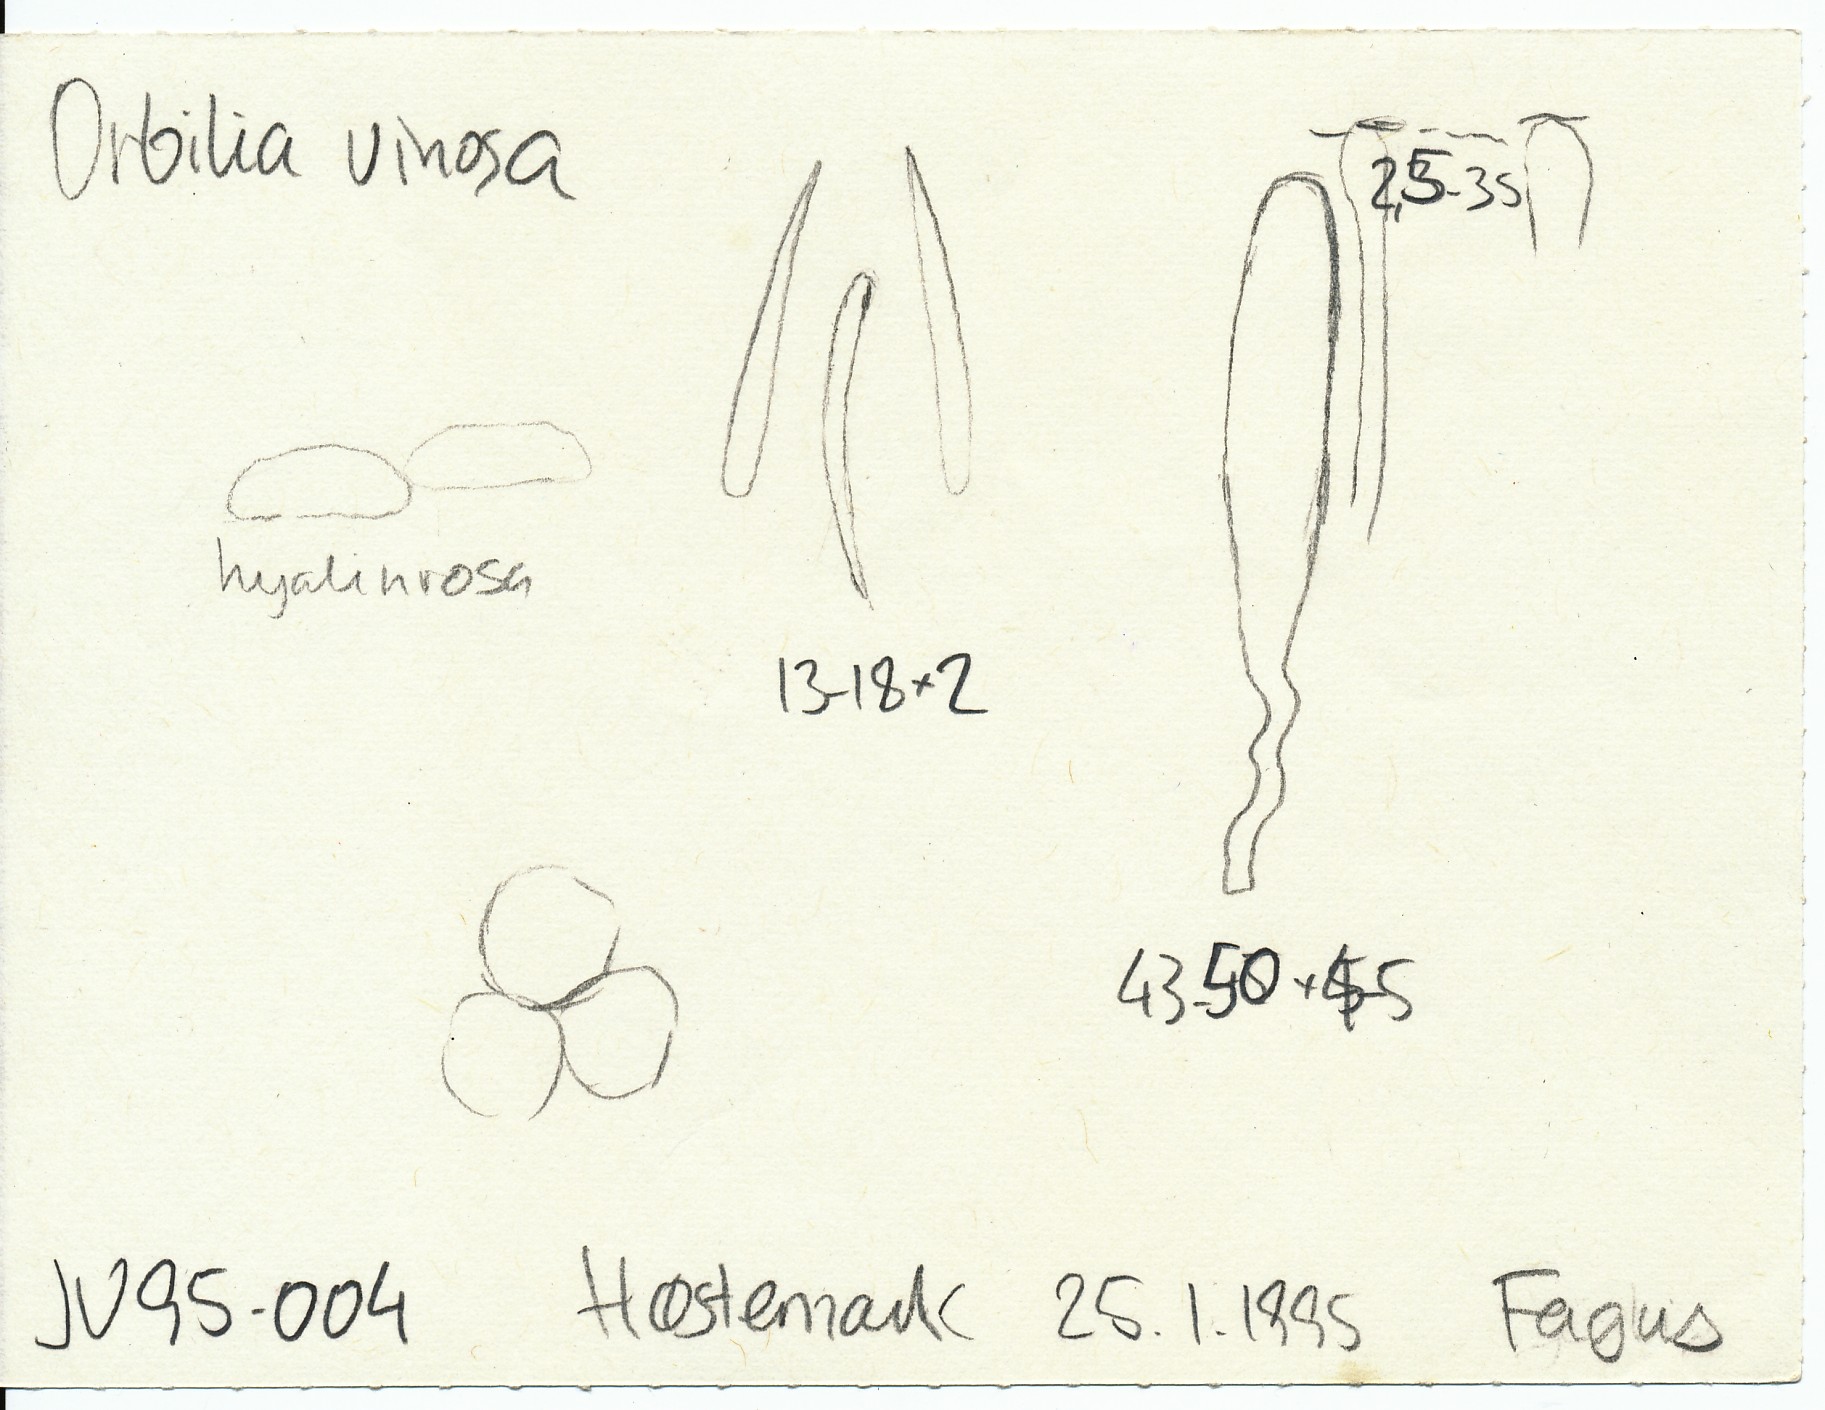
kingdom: Fungi
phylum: Ascomycota
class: Orbiliomycetes
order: Orbiliales
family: Orbiliaceae
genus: Orbilia
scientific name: Orbilia vinosa
